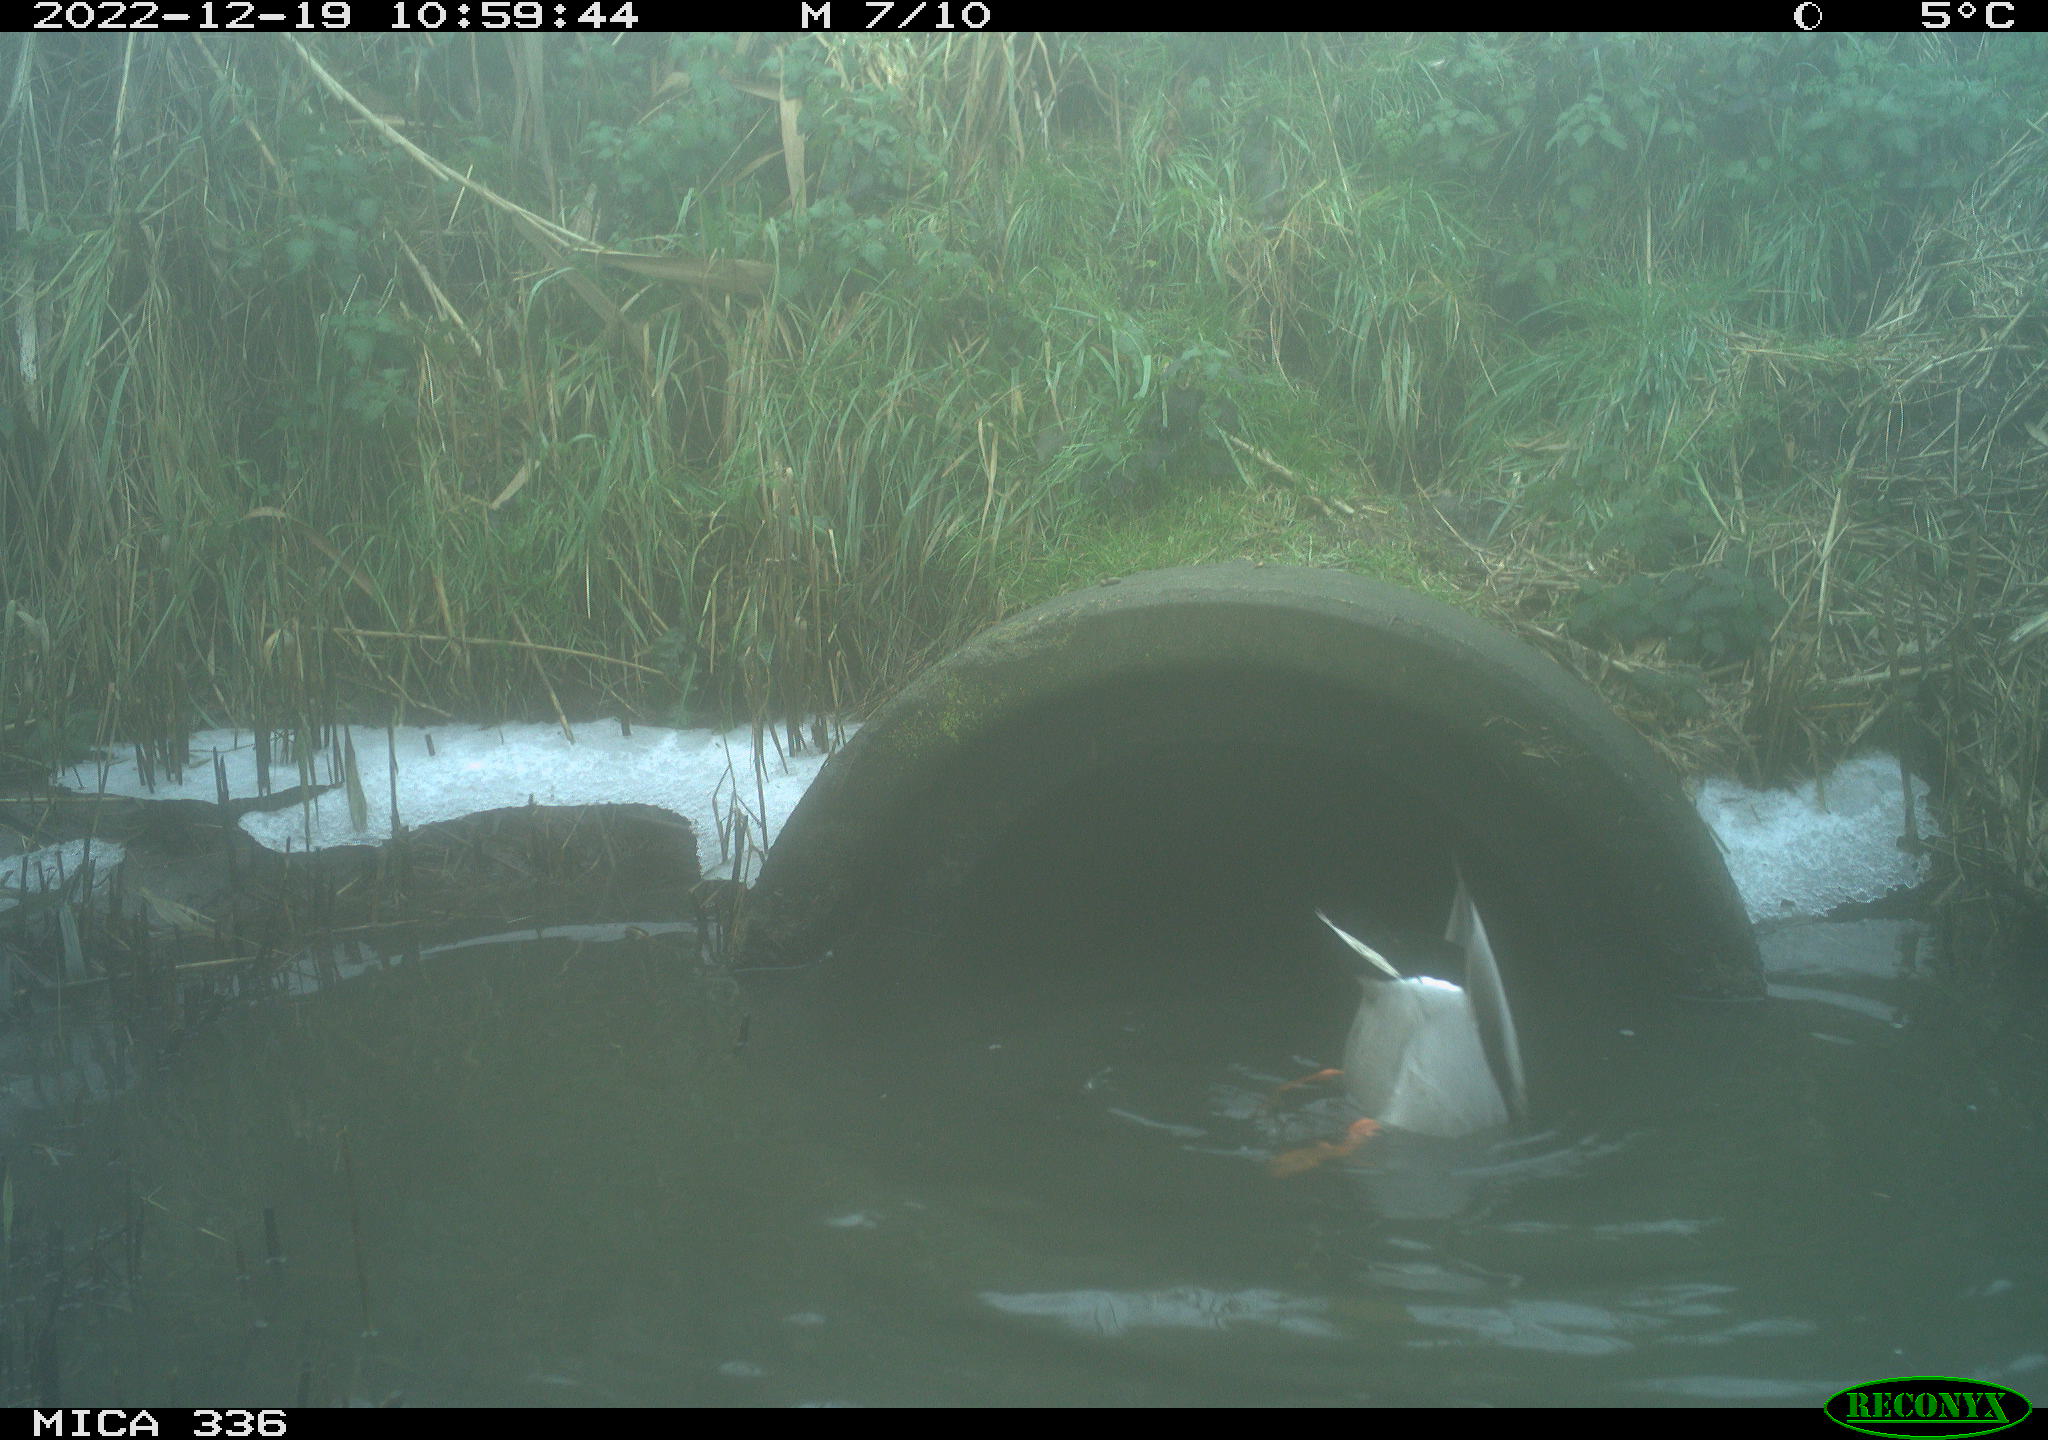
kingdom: Animalia
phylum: Chordata
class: Aves
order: Anseriformes
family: Anatidae
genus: Anas
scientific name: Anas
